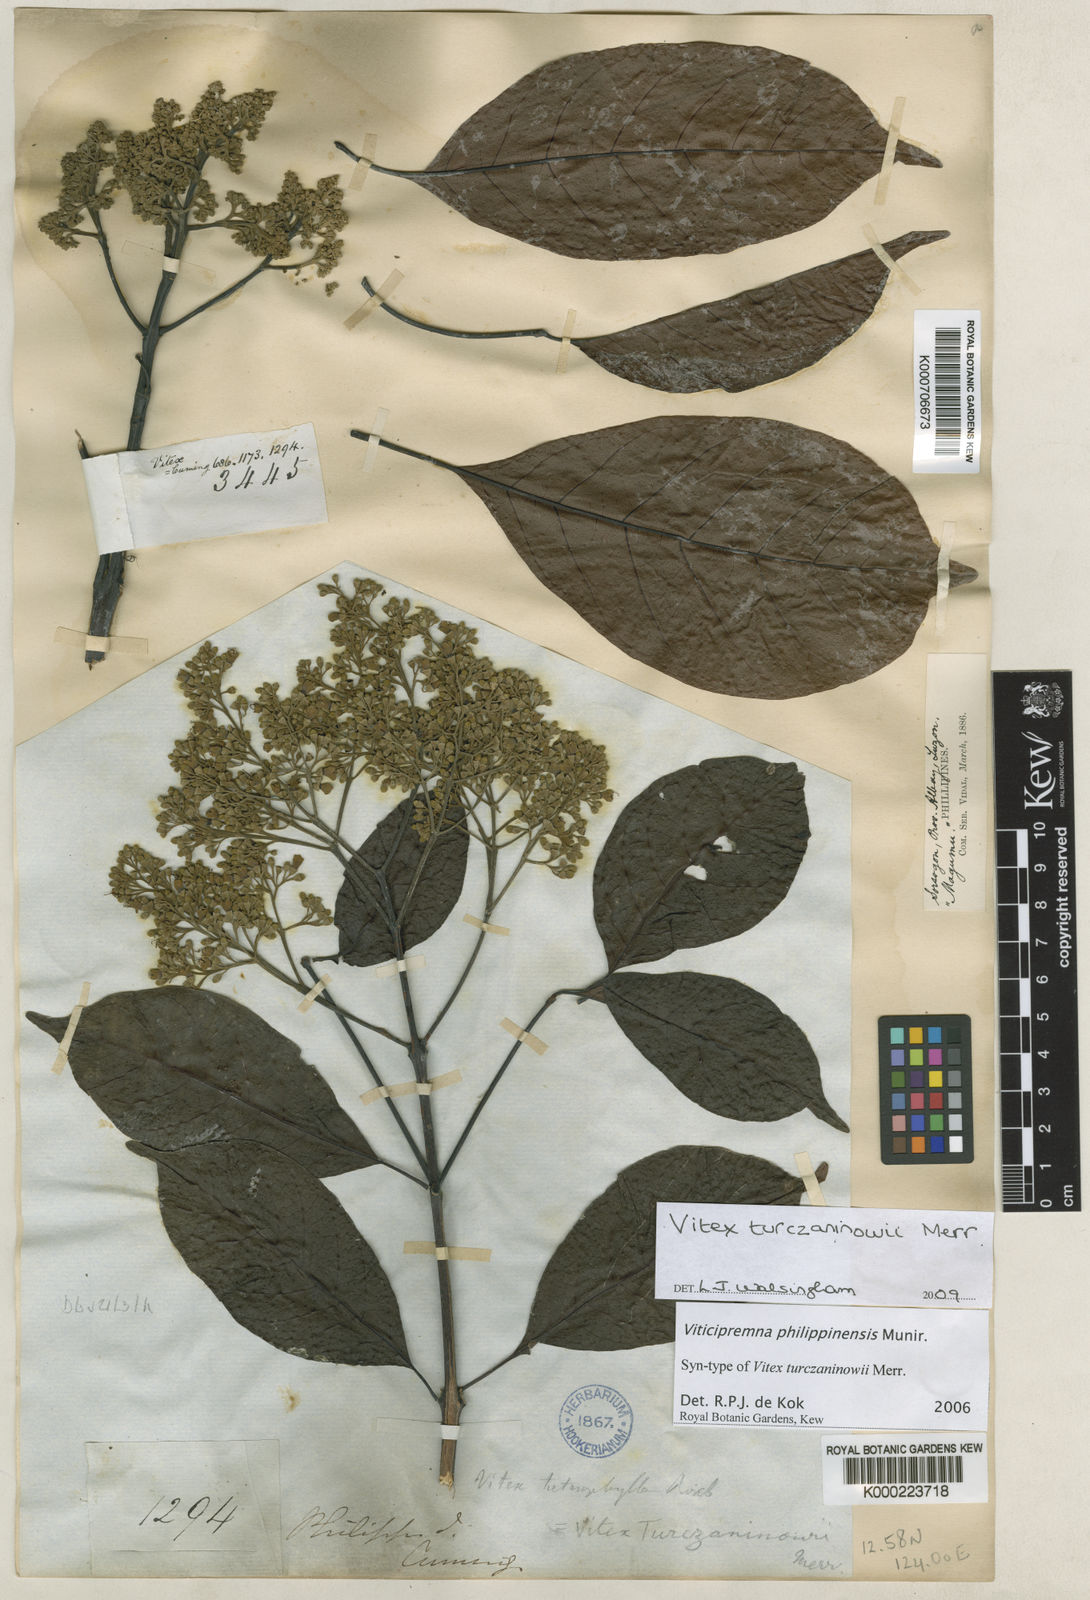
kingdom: Plantae
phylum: Tracheophyta
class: Magnoliopsida
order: Lamiales
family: Lamiaceae
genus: Vitex
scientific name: Vitex turczaninowii
